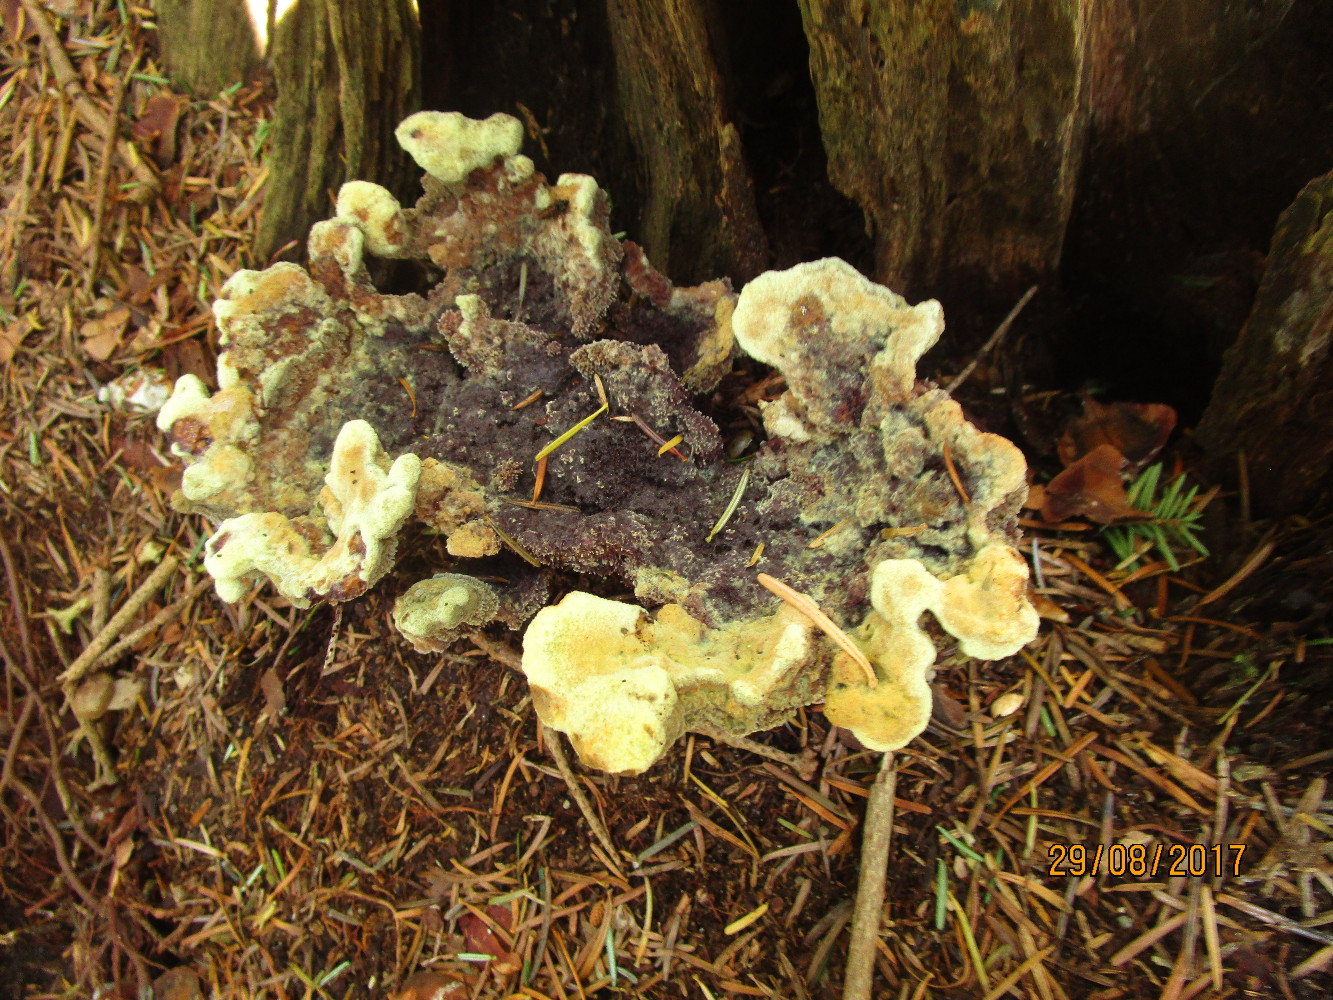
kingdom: Fungi
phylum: Basidiomycota
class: Agaricomycetes
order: Polyporales
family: Laetiporaceae
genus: Phaeolus
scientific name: Phaeolus schweinitzii
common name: brunporesvamp
